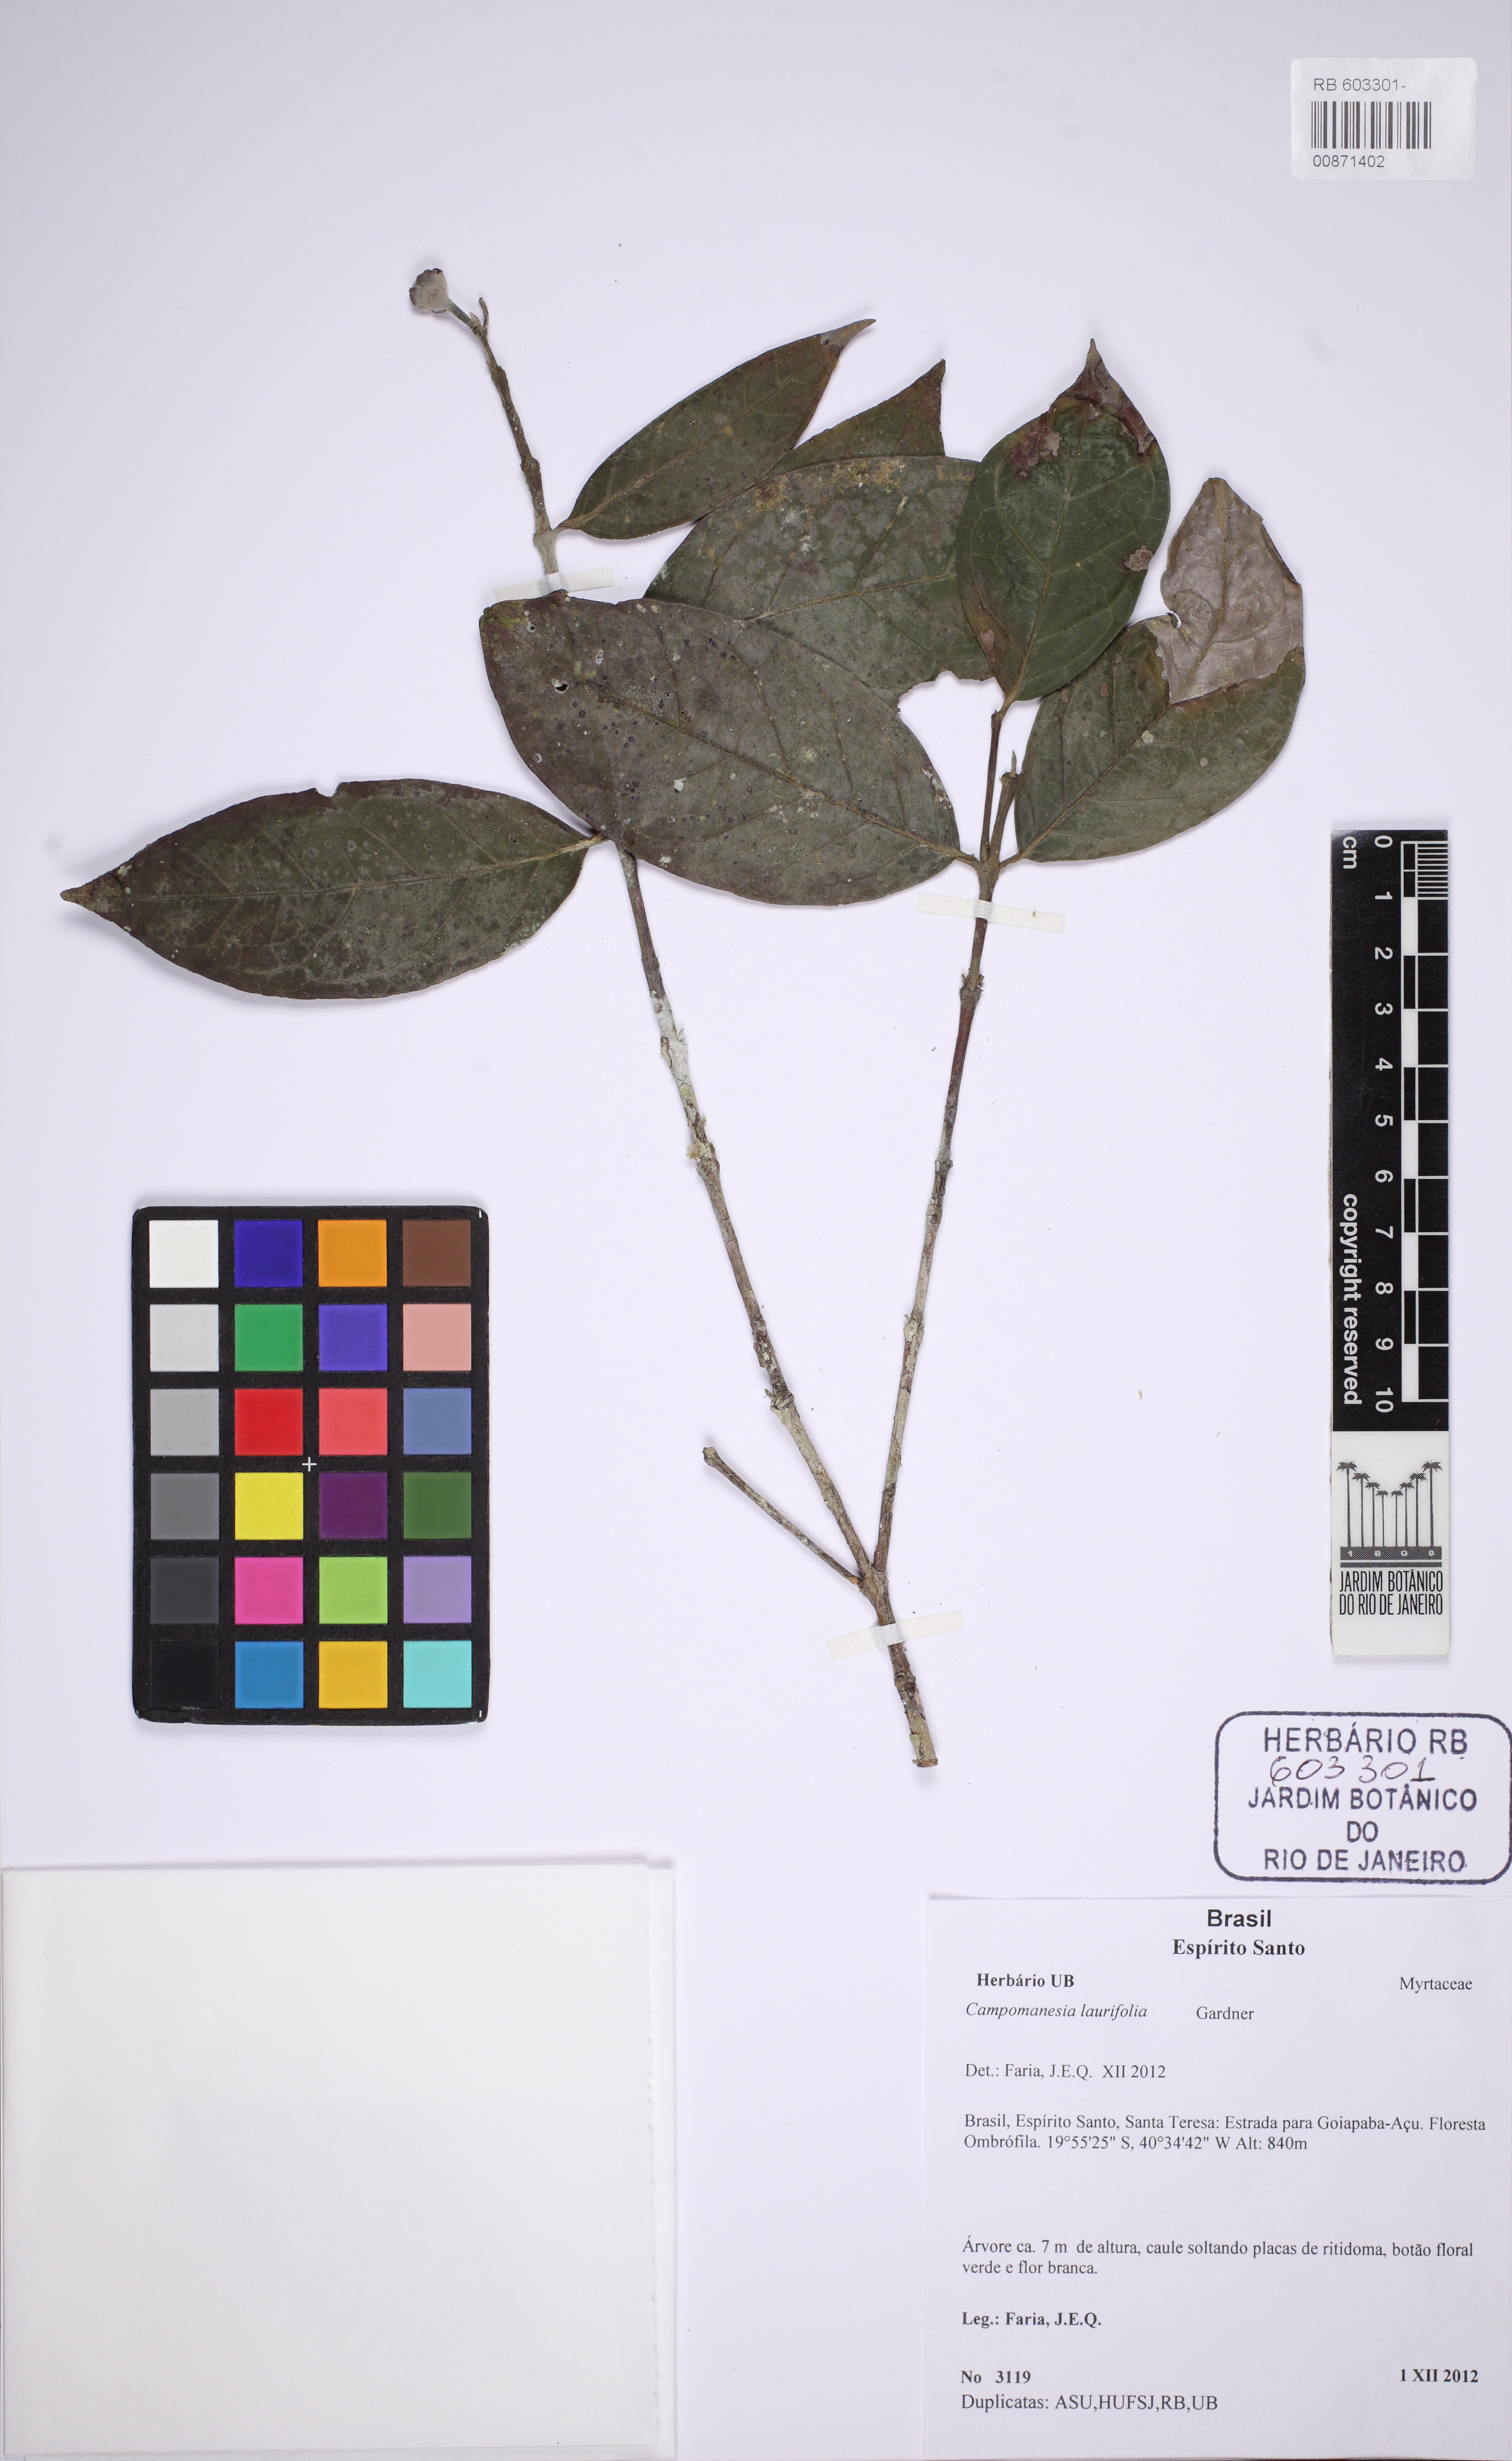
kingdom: Plantae
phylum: Tracheophyta
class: Magnoliopsida
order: Myrtales
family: Myrtaceae
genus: Campomanesia
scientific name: Campomanesia laurifolia
